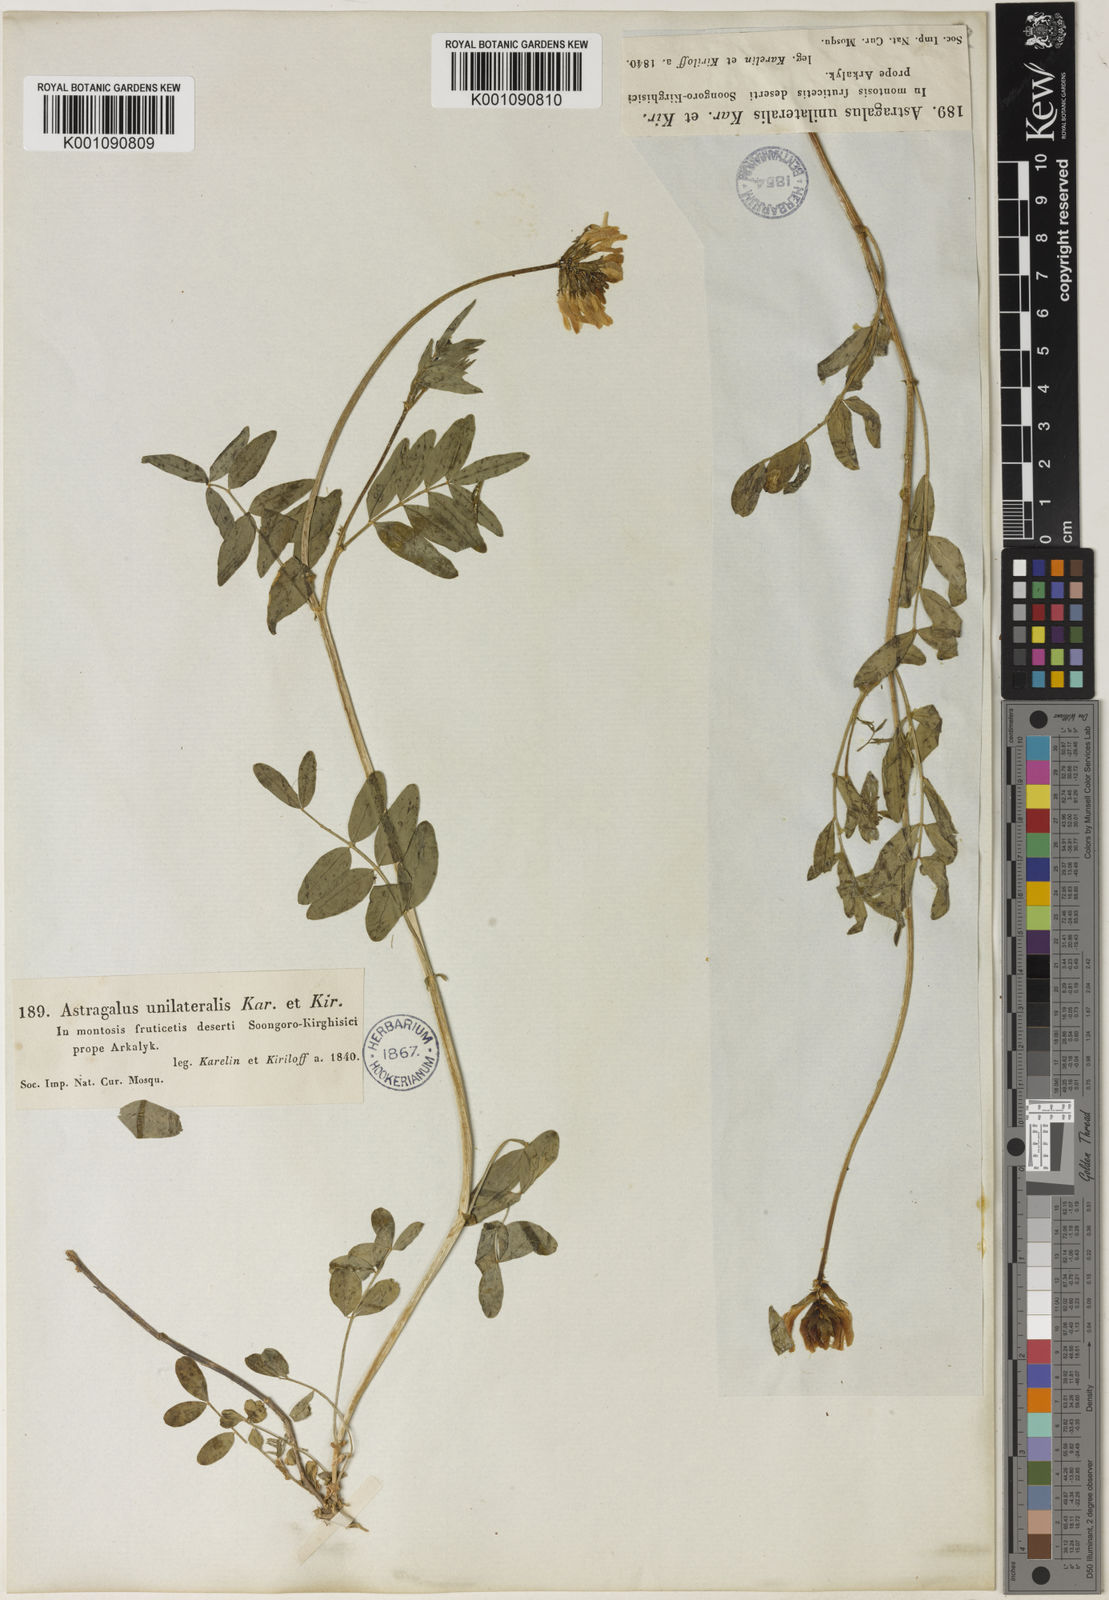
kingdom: Plantae
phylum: Tracheophyta
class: Magnoliopsida
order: Fabales
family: Fabaceae
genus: Astragalus
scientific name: Astragalus
